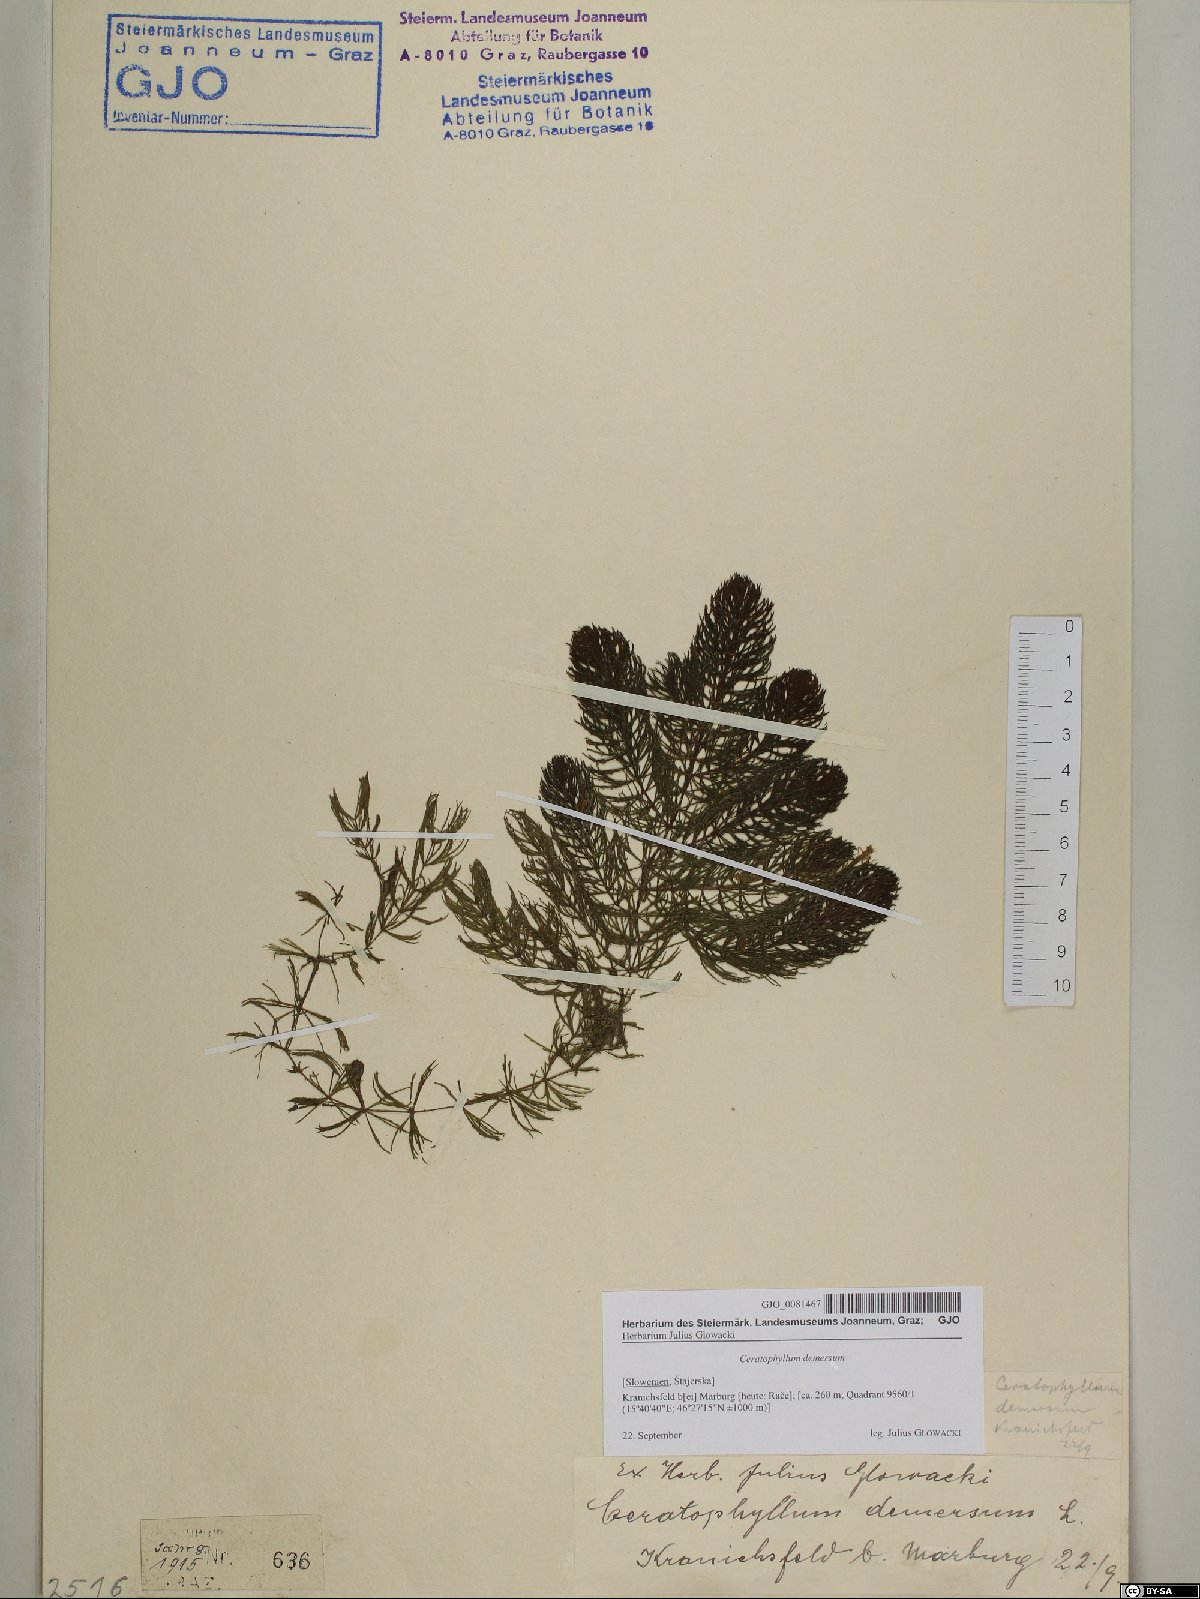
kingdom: Plantae
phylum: Tracheophyta
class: Magnoliopsida
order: Ceratophyllales
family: Ceratophyllaceae
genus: Ceratophyllum
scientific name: Ceratophyllum demersum
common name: Rigid hornwort
